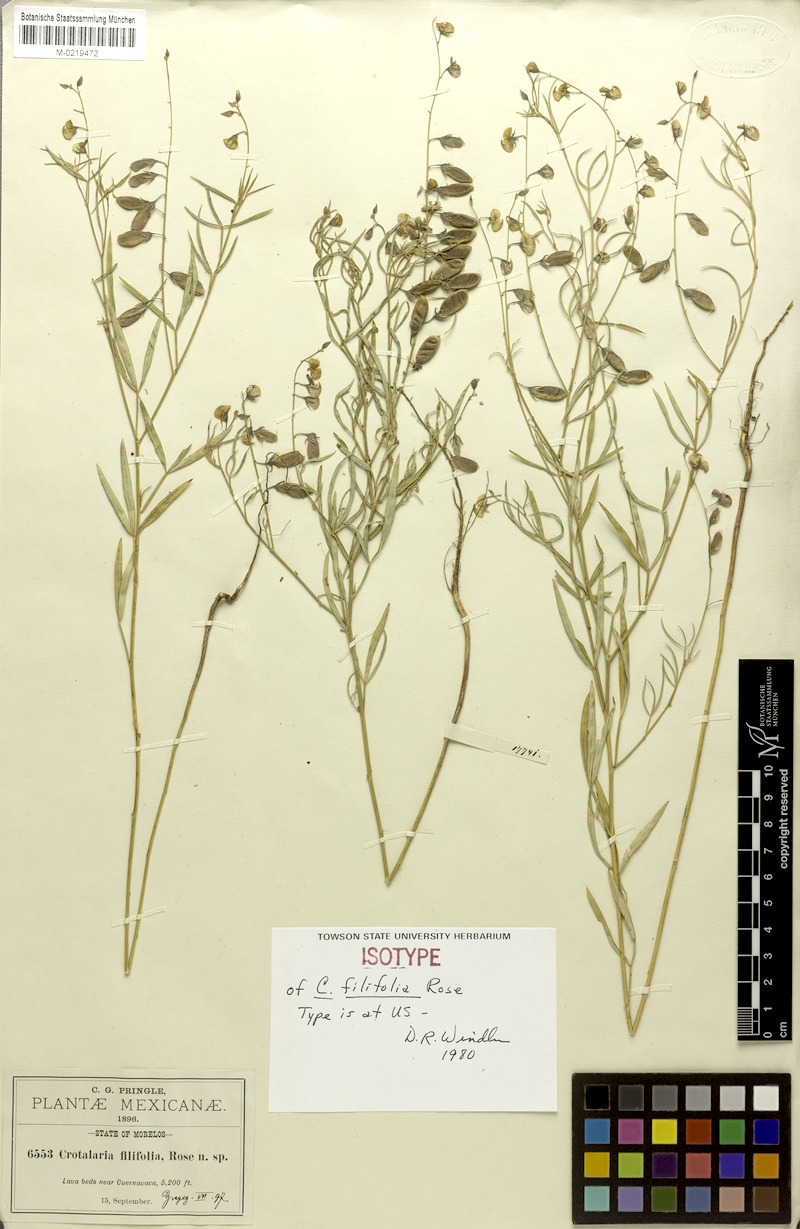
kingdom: Plantae
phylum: Tracheophyta
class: Magnoliopsida
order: Fabales
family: Fabaceae
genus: Crotalaria
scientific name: Crotalaria filifolia
